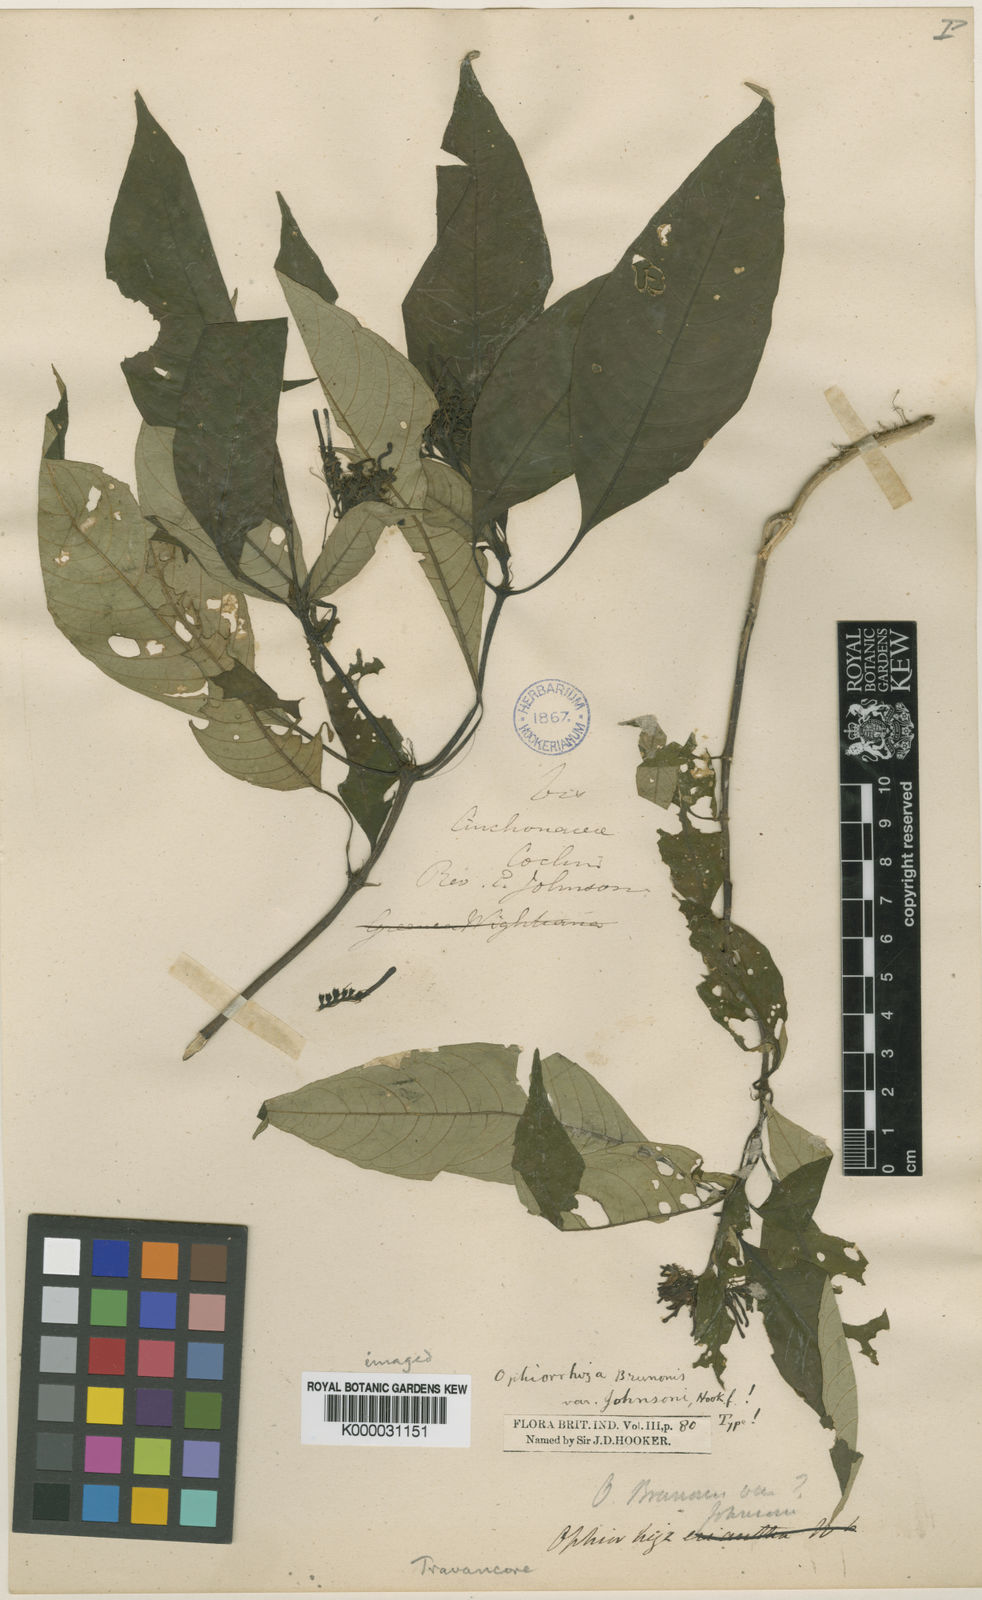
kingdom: Plantae
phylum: Tracheophyta
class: Magnoliopsida
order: Gentianales
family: Rubiaceae
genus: Ophiorrhiza
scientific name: Ophiorrhiza
